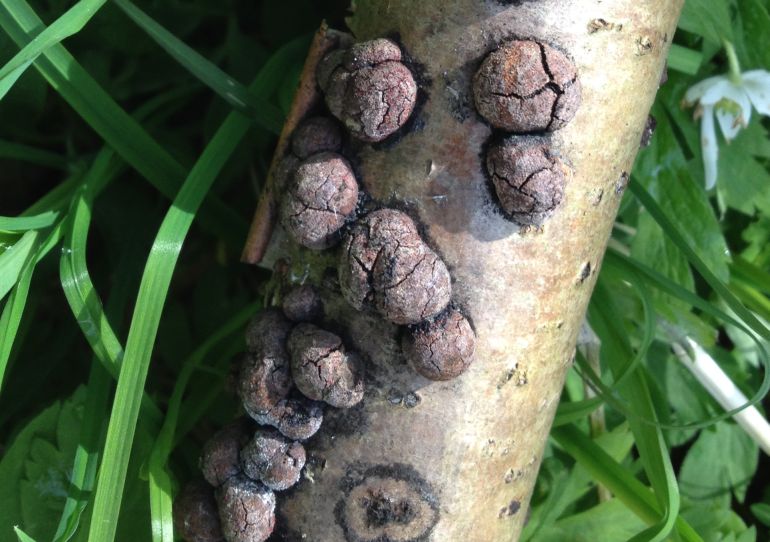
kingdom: Fungi
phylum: Ascomycota
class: Sordariomycetes
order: Xylariales
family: Hypoxylaceae
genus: Hypoxylon
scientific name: Hypoxylon fuscum
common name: kegleformet kulbær
